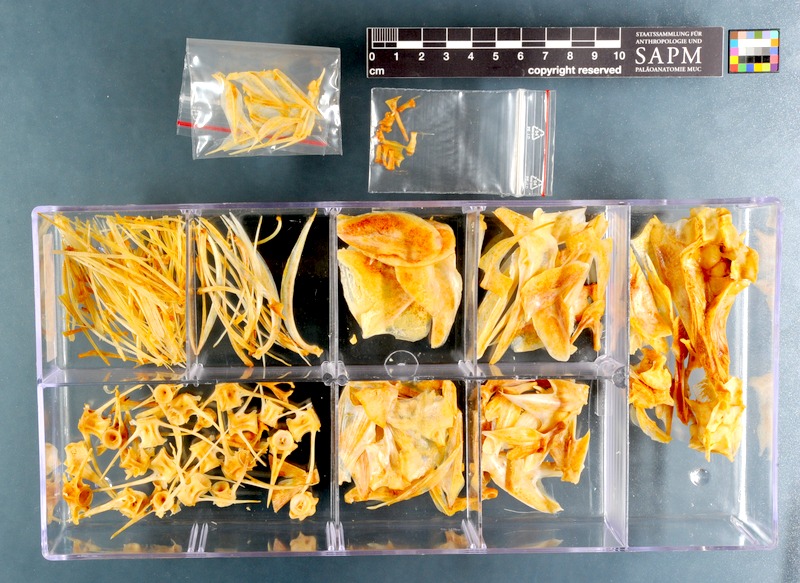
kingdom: Animalia
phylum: Chordata
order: Perciformes
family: Sparidae
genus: Argyrozona
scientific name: Argyrozona argyrozona
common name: Carpenter
